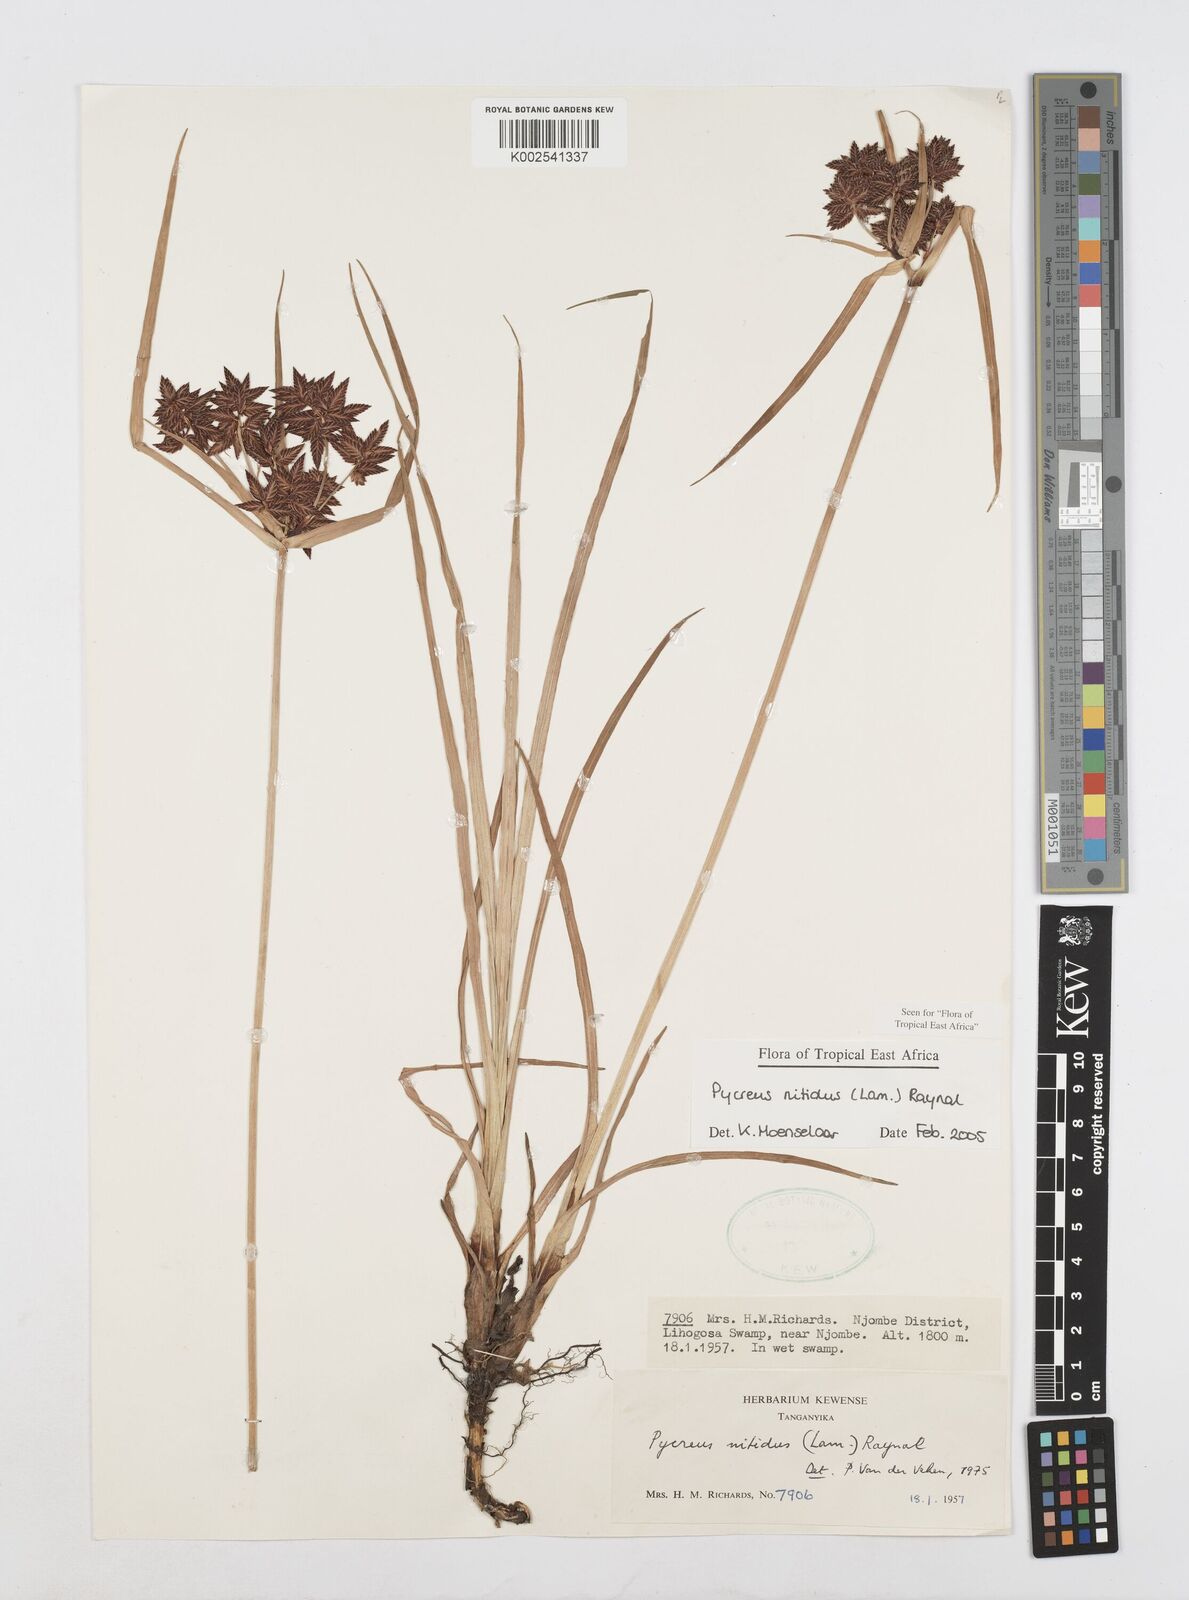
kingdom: Plantae
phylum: Tracheophyta
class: Liliopsida
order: Poales
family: Cyperaceae
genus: Cyperus
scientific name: Cyperus nitidus
